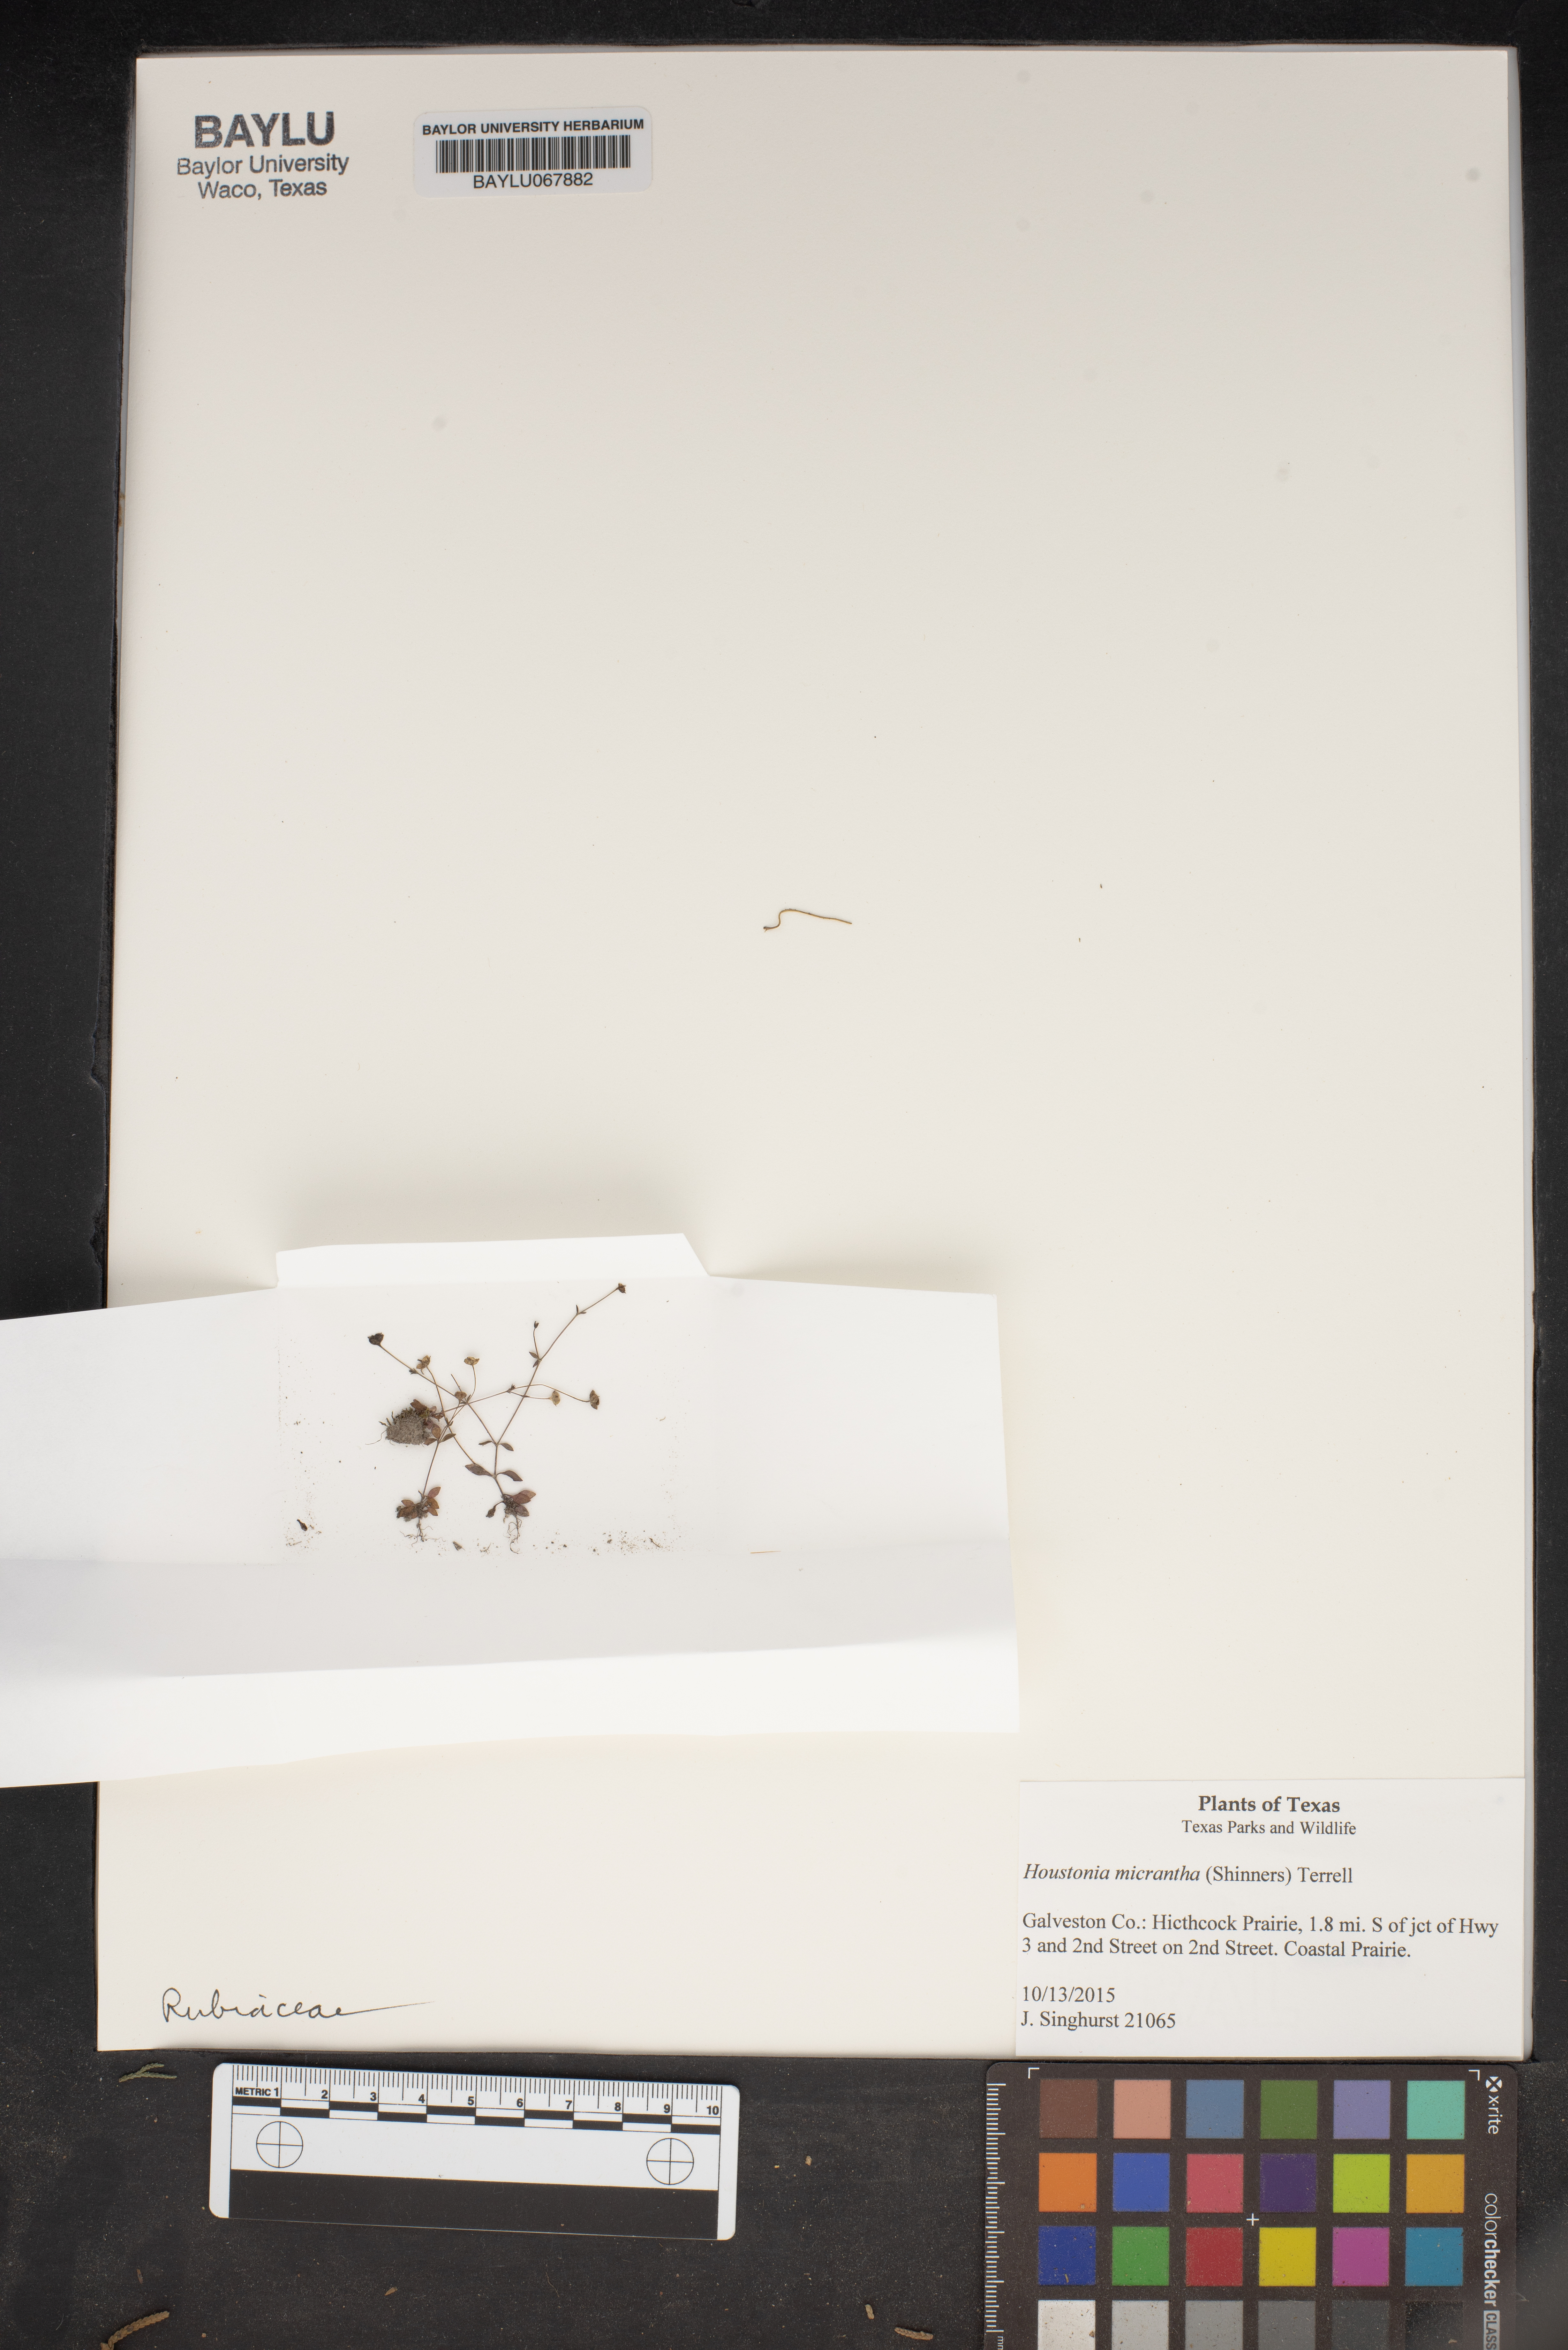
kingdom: Plantae
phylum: Tracheophyta
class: Magnoliopsida
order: Gentianales
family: Rubiaceae
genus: Houstonia
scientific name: Houstonia micrantha
